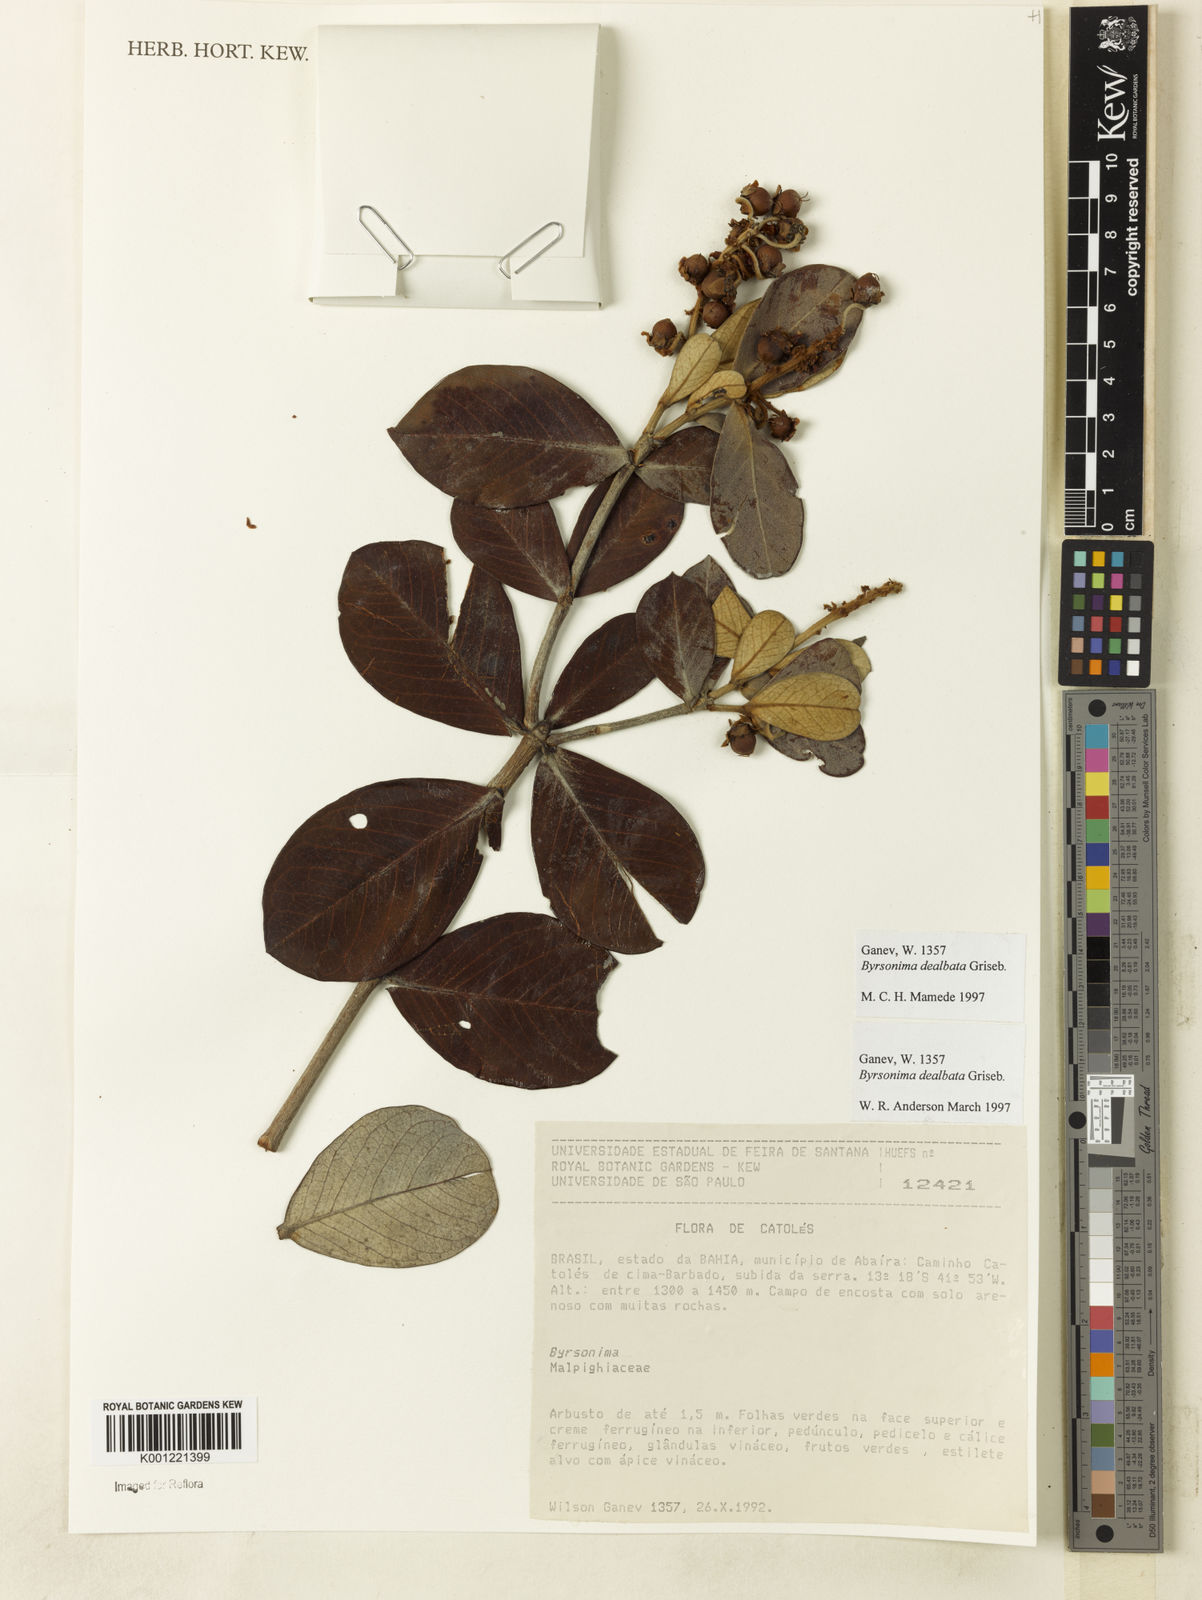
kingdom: Plantae
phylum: Tracheophyta
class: Magnoliopsida
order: Malpighiales
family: Malpighiaceae
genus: Byrsonima
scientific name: Byrsonima dealbata
